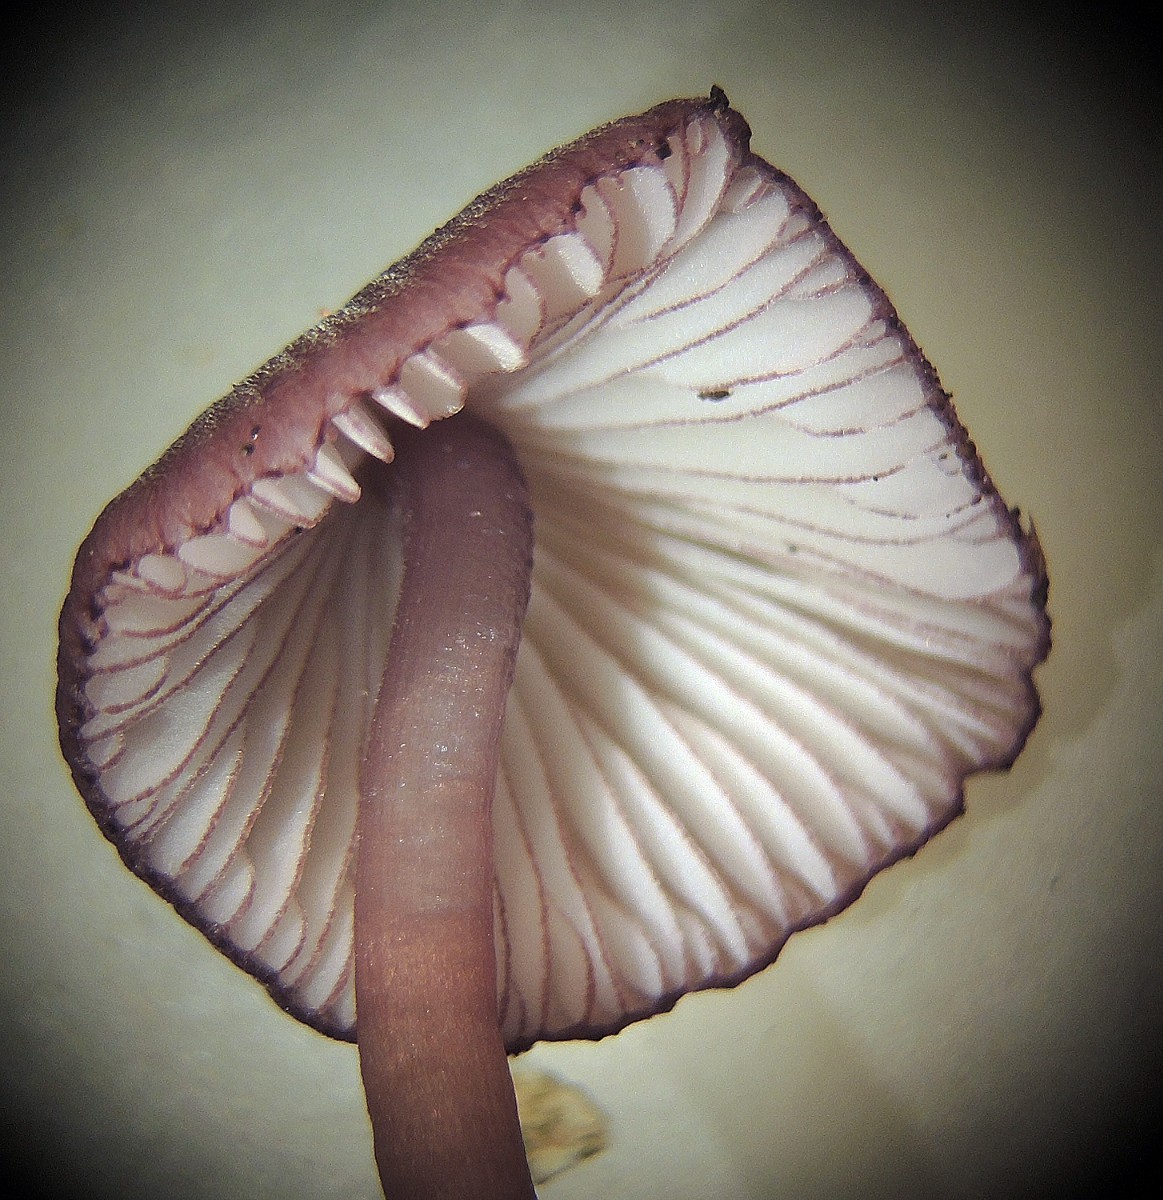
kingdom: Fungi
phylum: Basidiomycota
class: Agaricomycetes
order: Agaricales
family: Mycenaceae
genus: Mycena
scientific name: Mycena purpureofusca
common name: purpur-huesvamp
